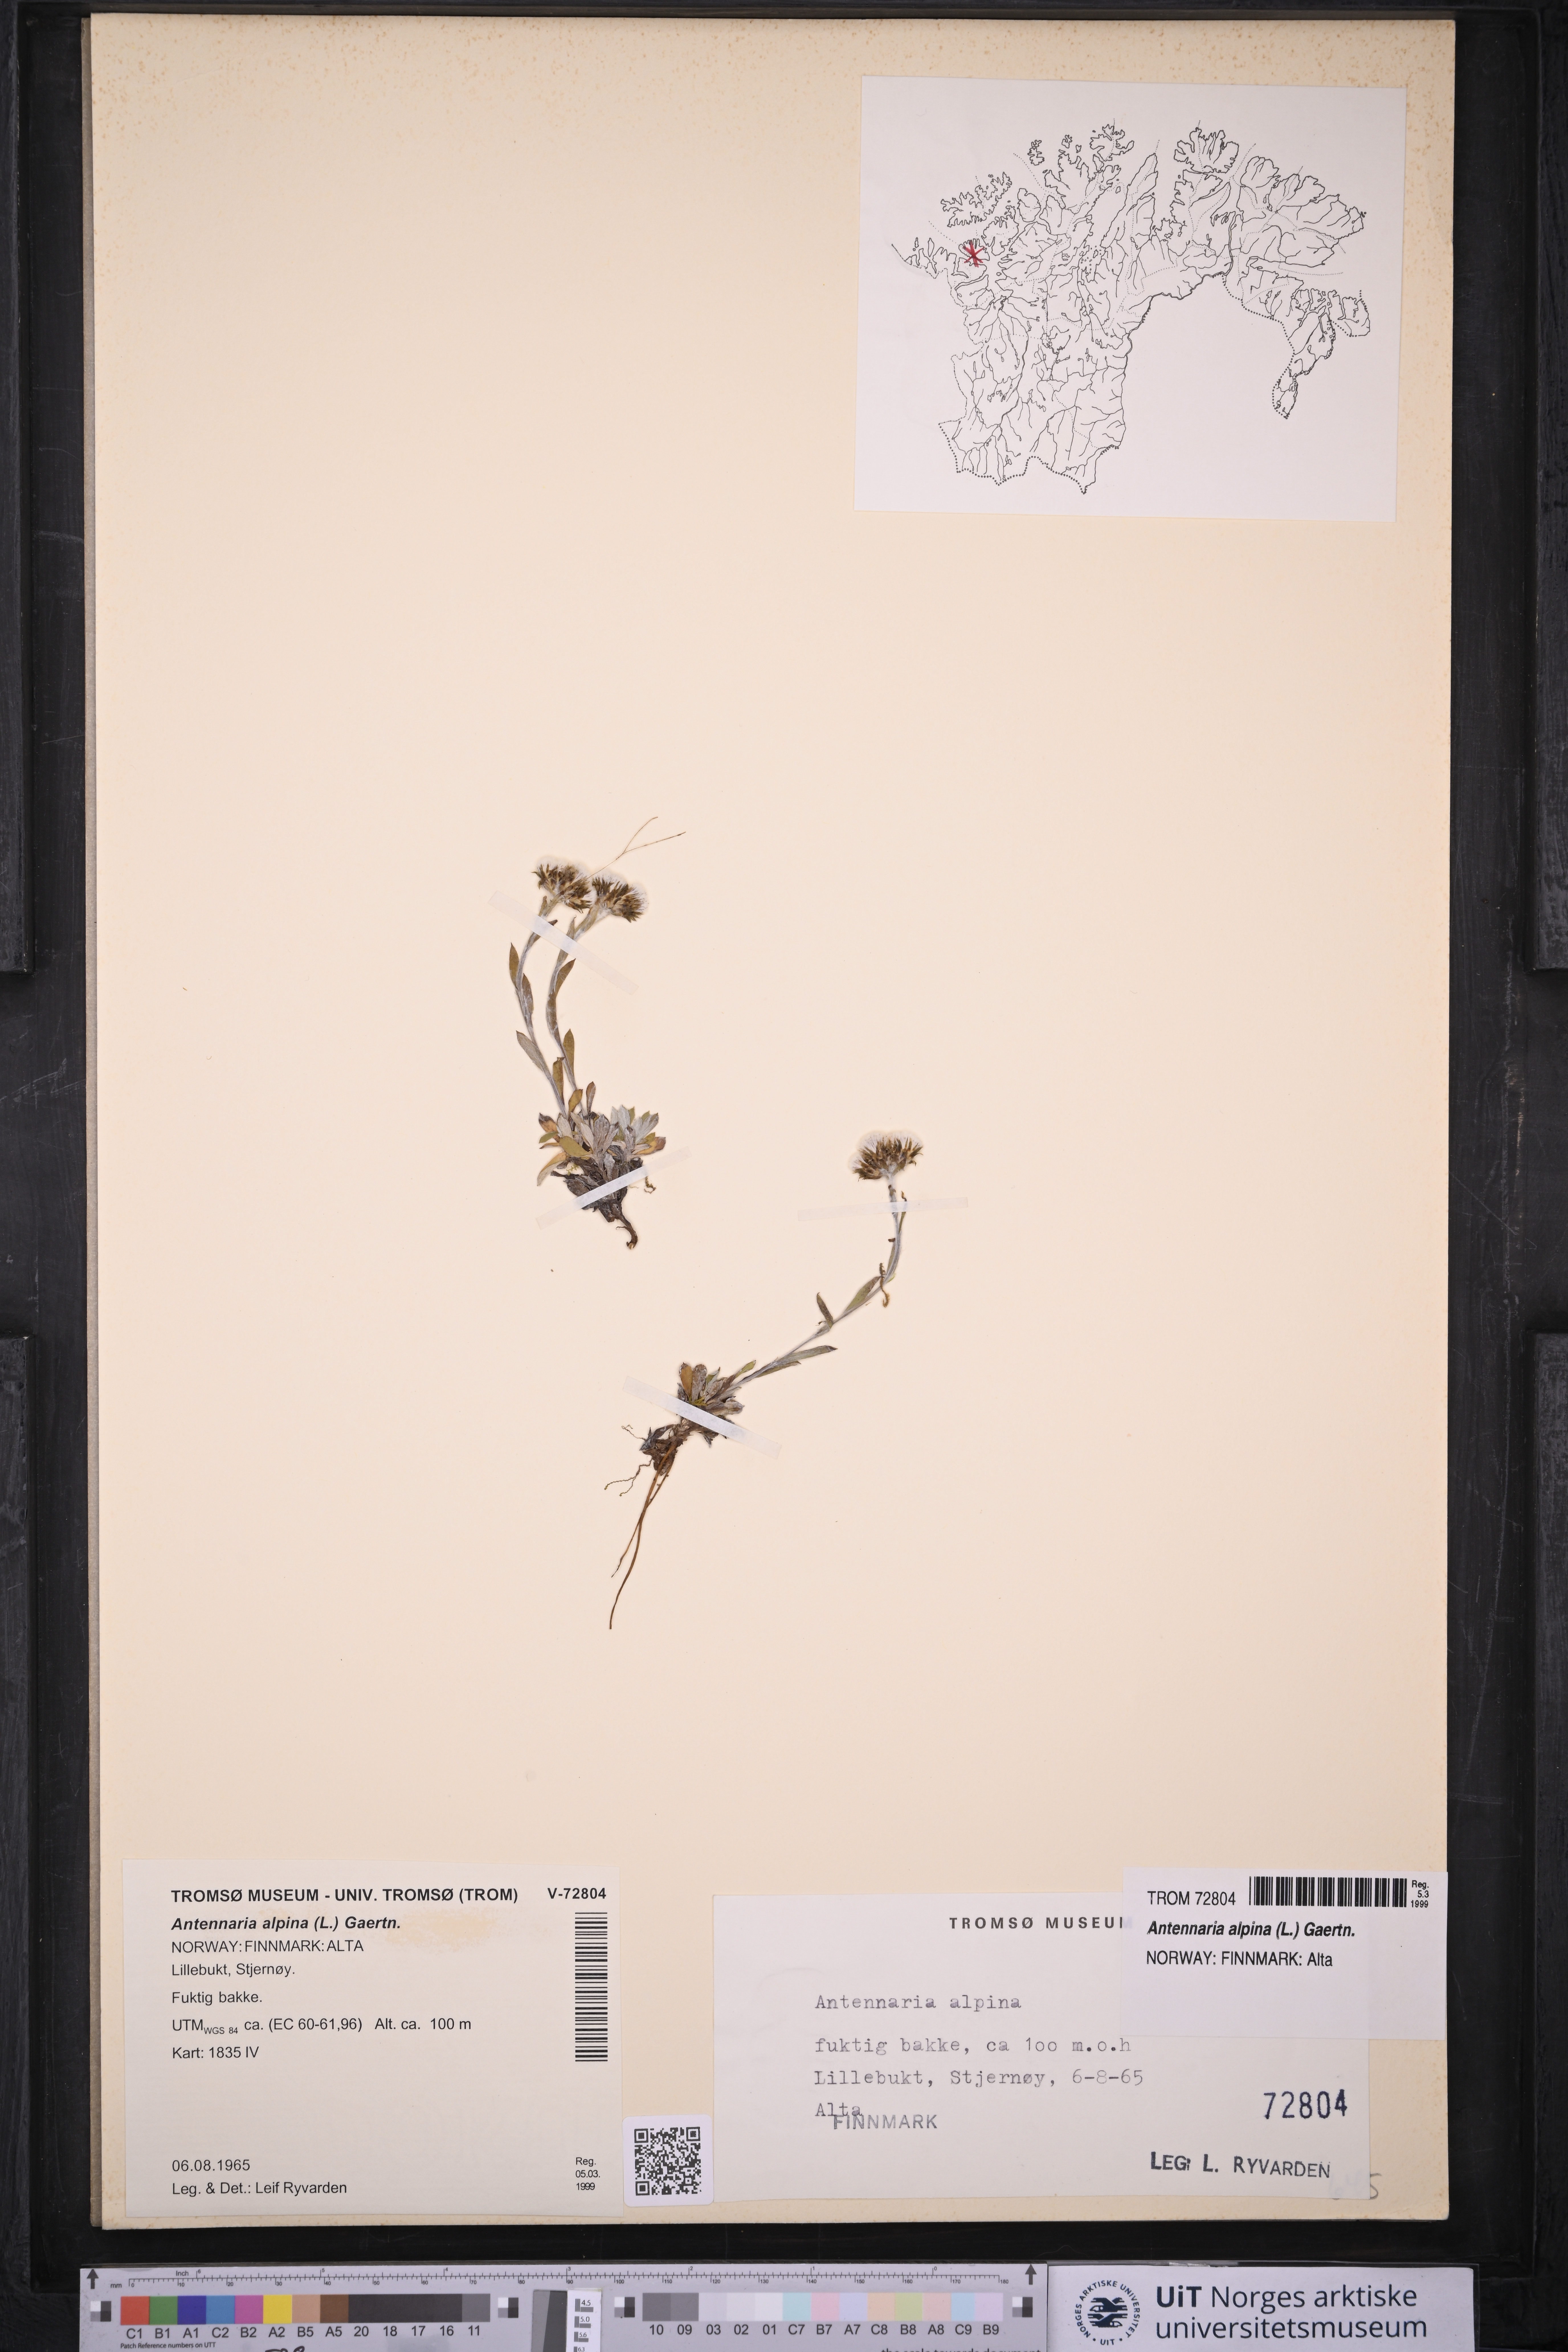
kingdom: Plantae
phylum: Tracheophyta
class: Magnoliopsida
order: Asterales
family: Asteraceae
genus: Antennaria
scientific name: Antennaria alpina
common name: Alpine pussytoes
